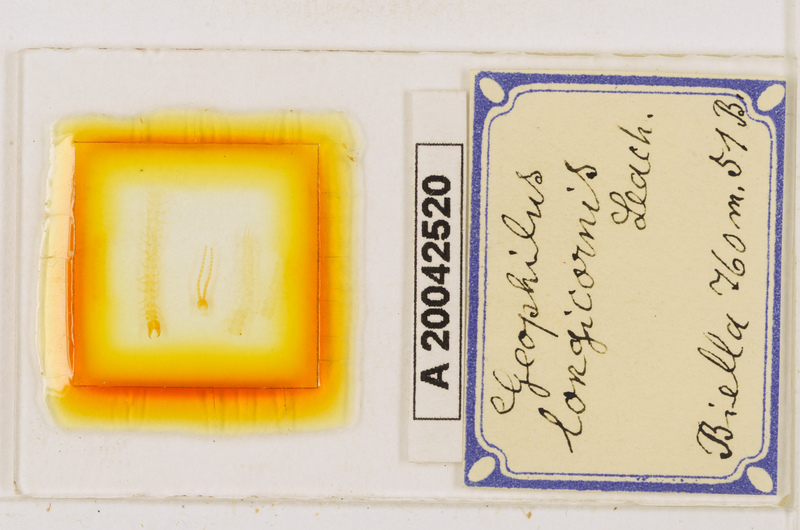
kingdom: Animalia
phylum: Arthropoda
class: Chilopoda
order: Geophilomorpha
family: Geophilidae
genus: Geophilus
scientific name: Geophilus flavus
